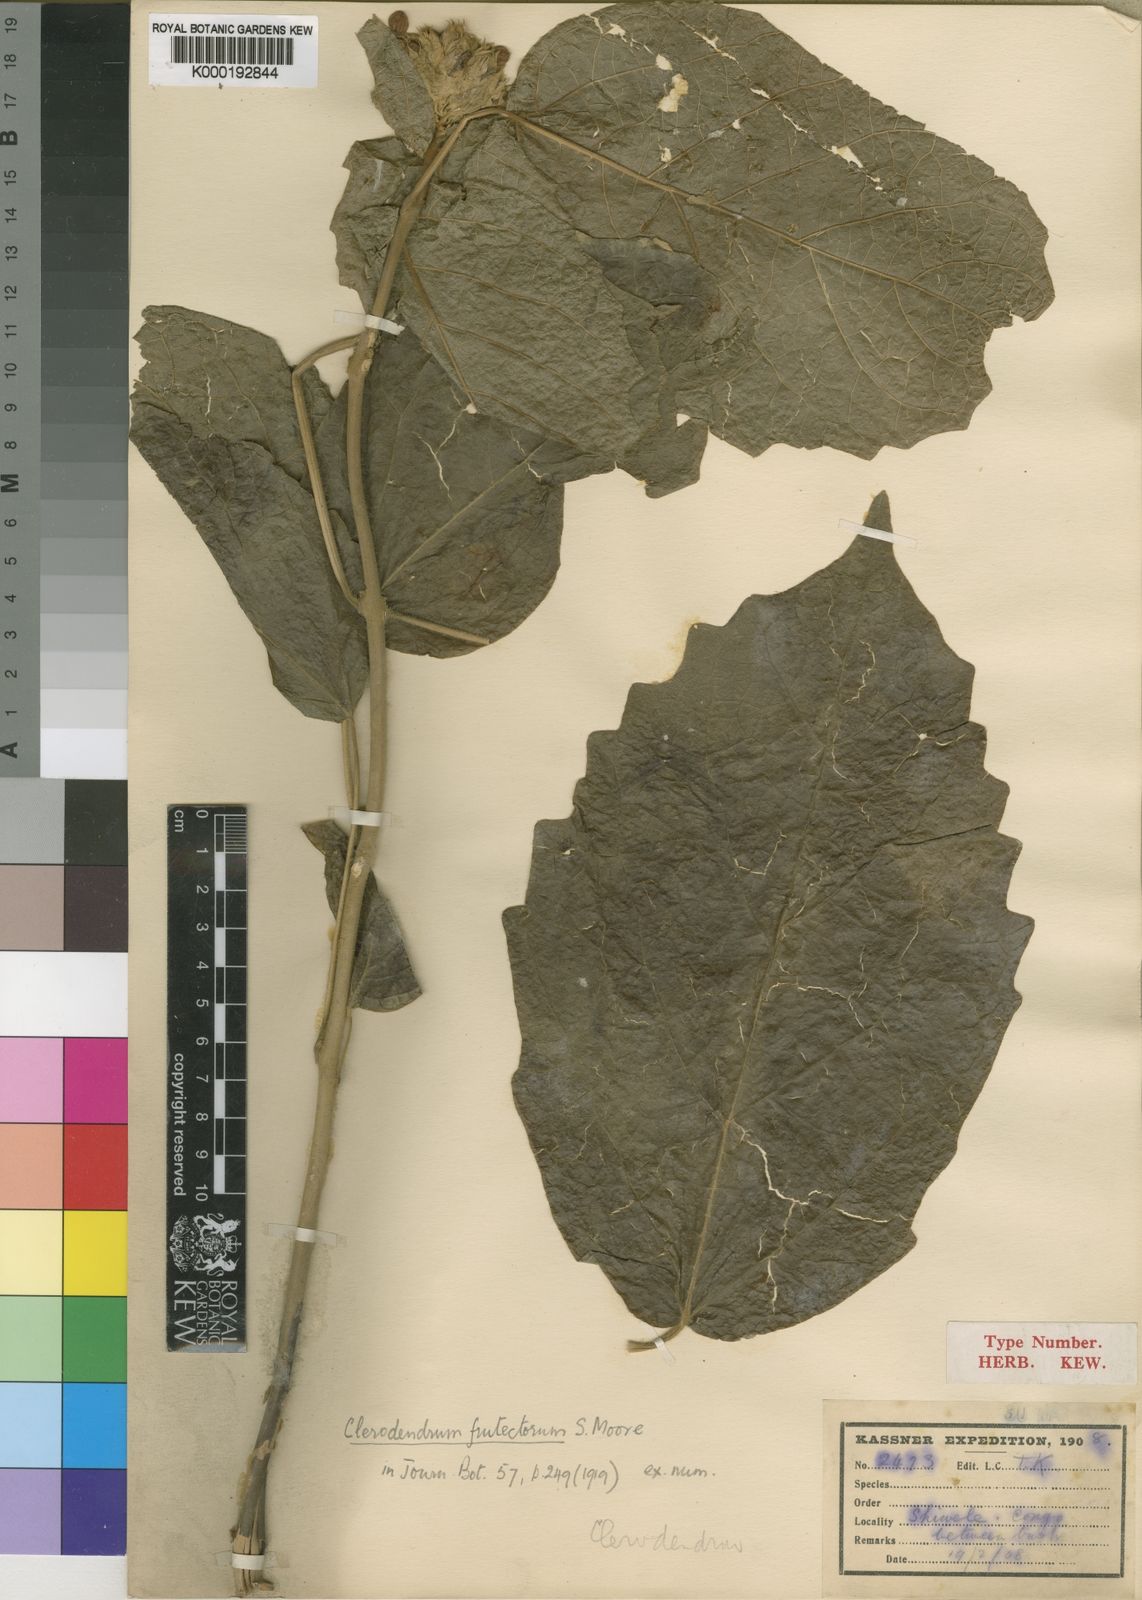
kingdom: Plantae
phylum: Tracheophyta
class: Magnoliopsida
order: Lamiales
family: Lamiaceae
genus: Clerodendrum
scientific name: Clerodendrum frutectorum
